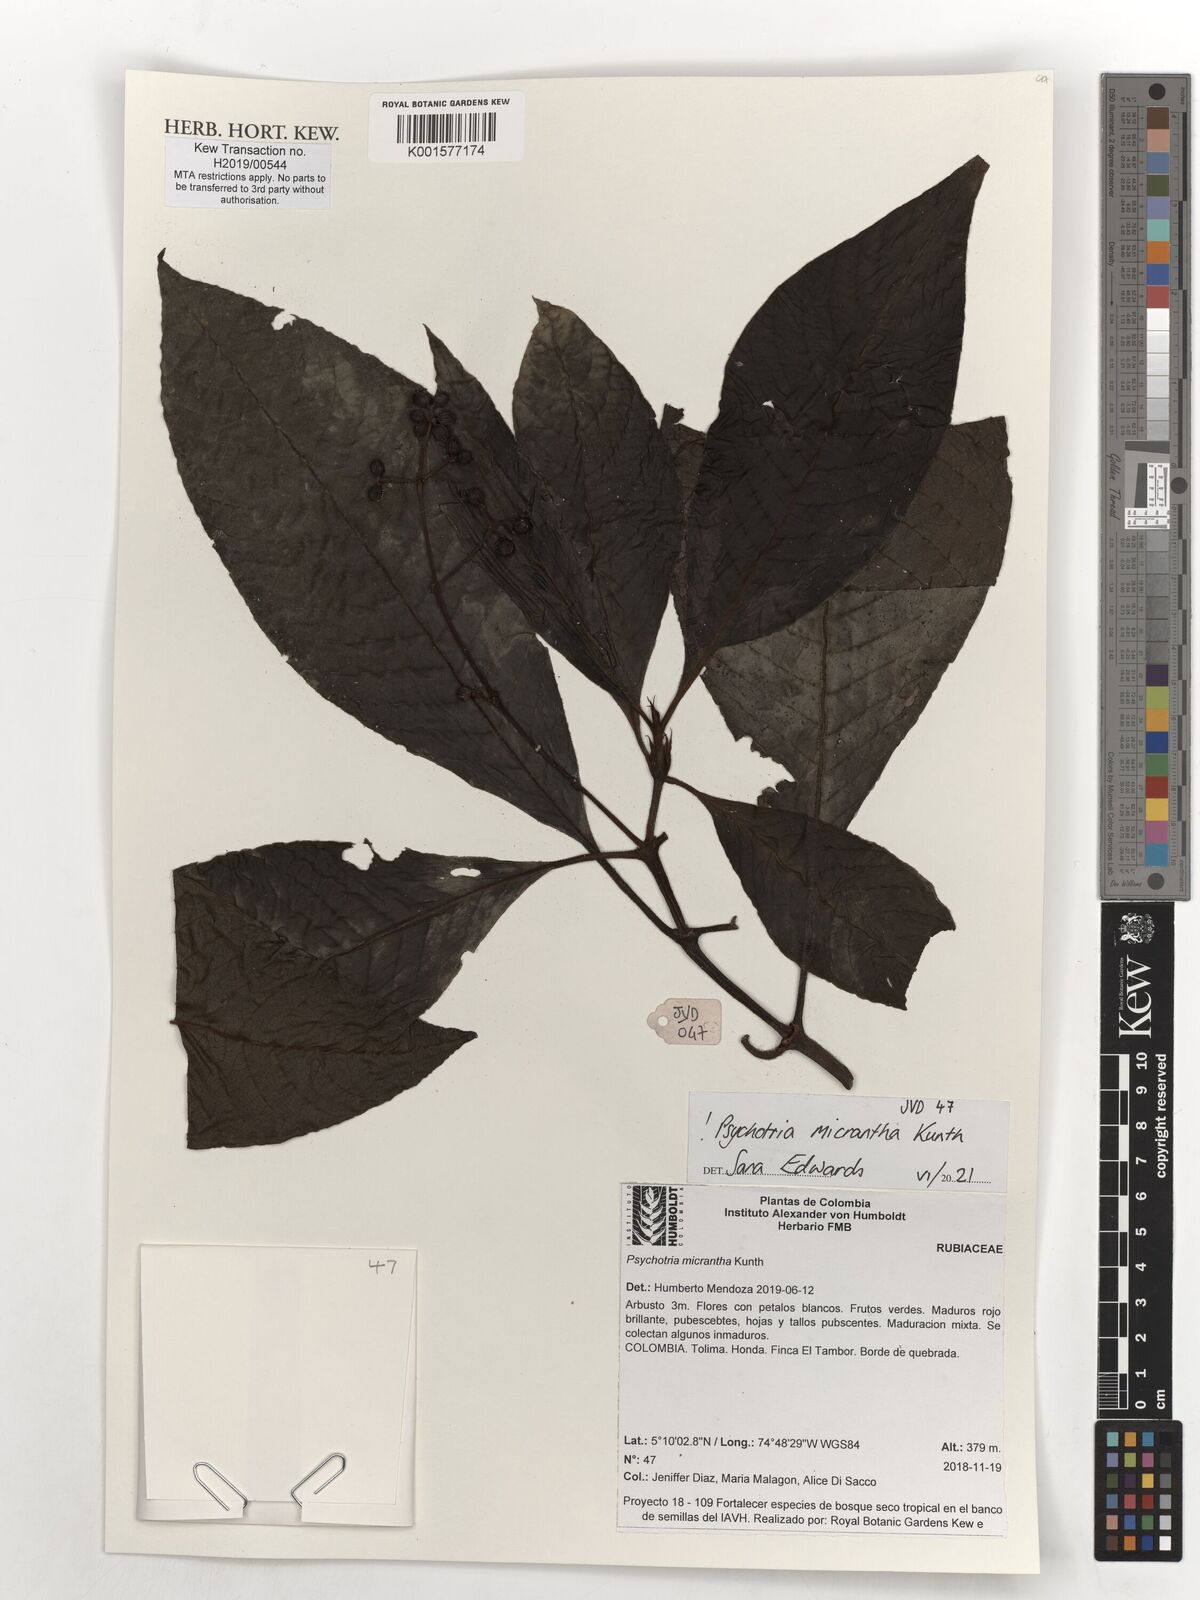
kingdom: Plantae
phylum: Tracheophyta
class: Magnoliopsida
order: Gentianales
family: Rubiaceae
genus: Psychotria
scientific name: Psychotria micrantha
